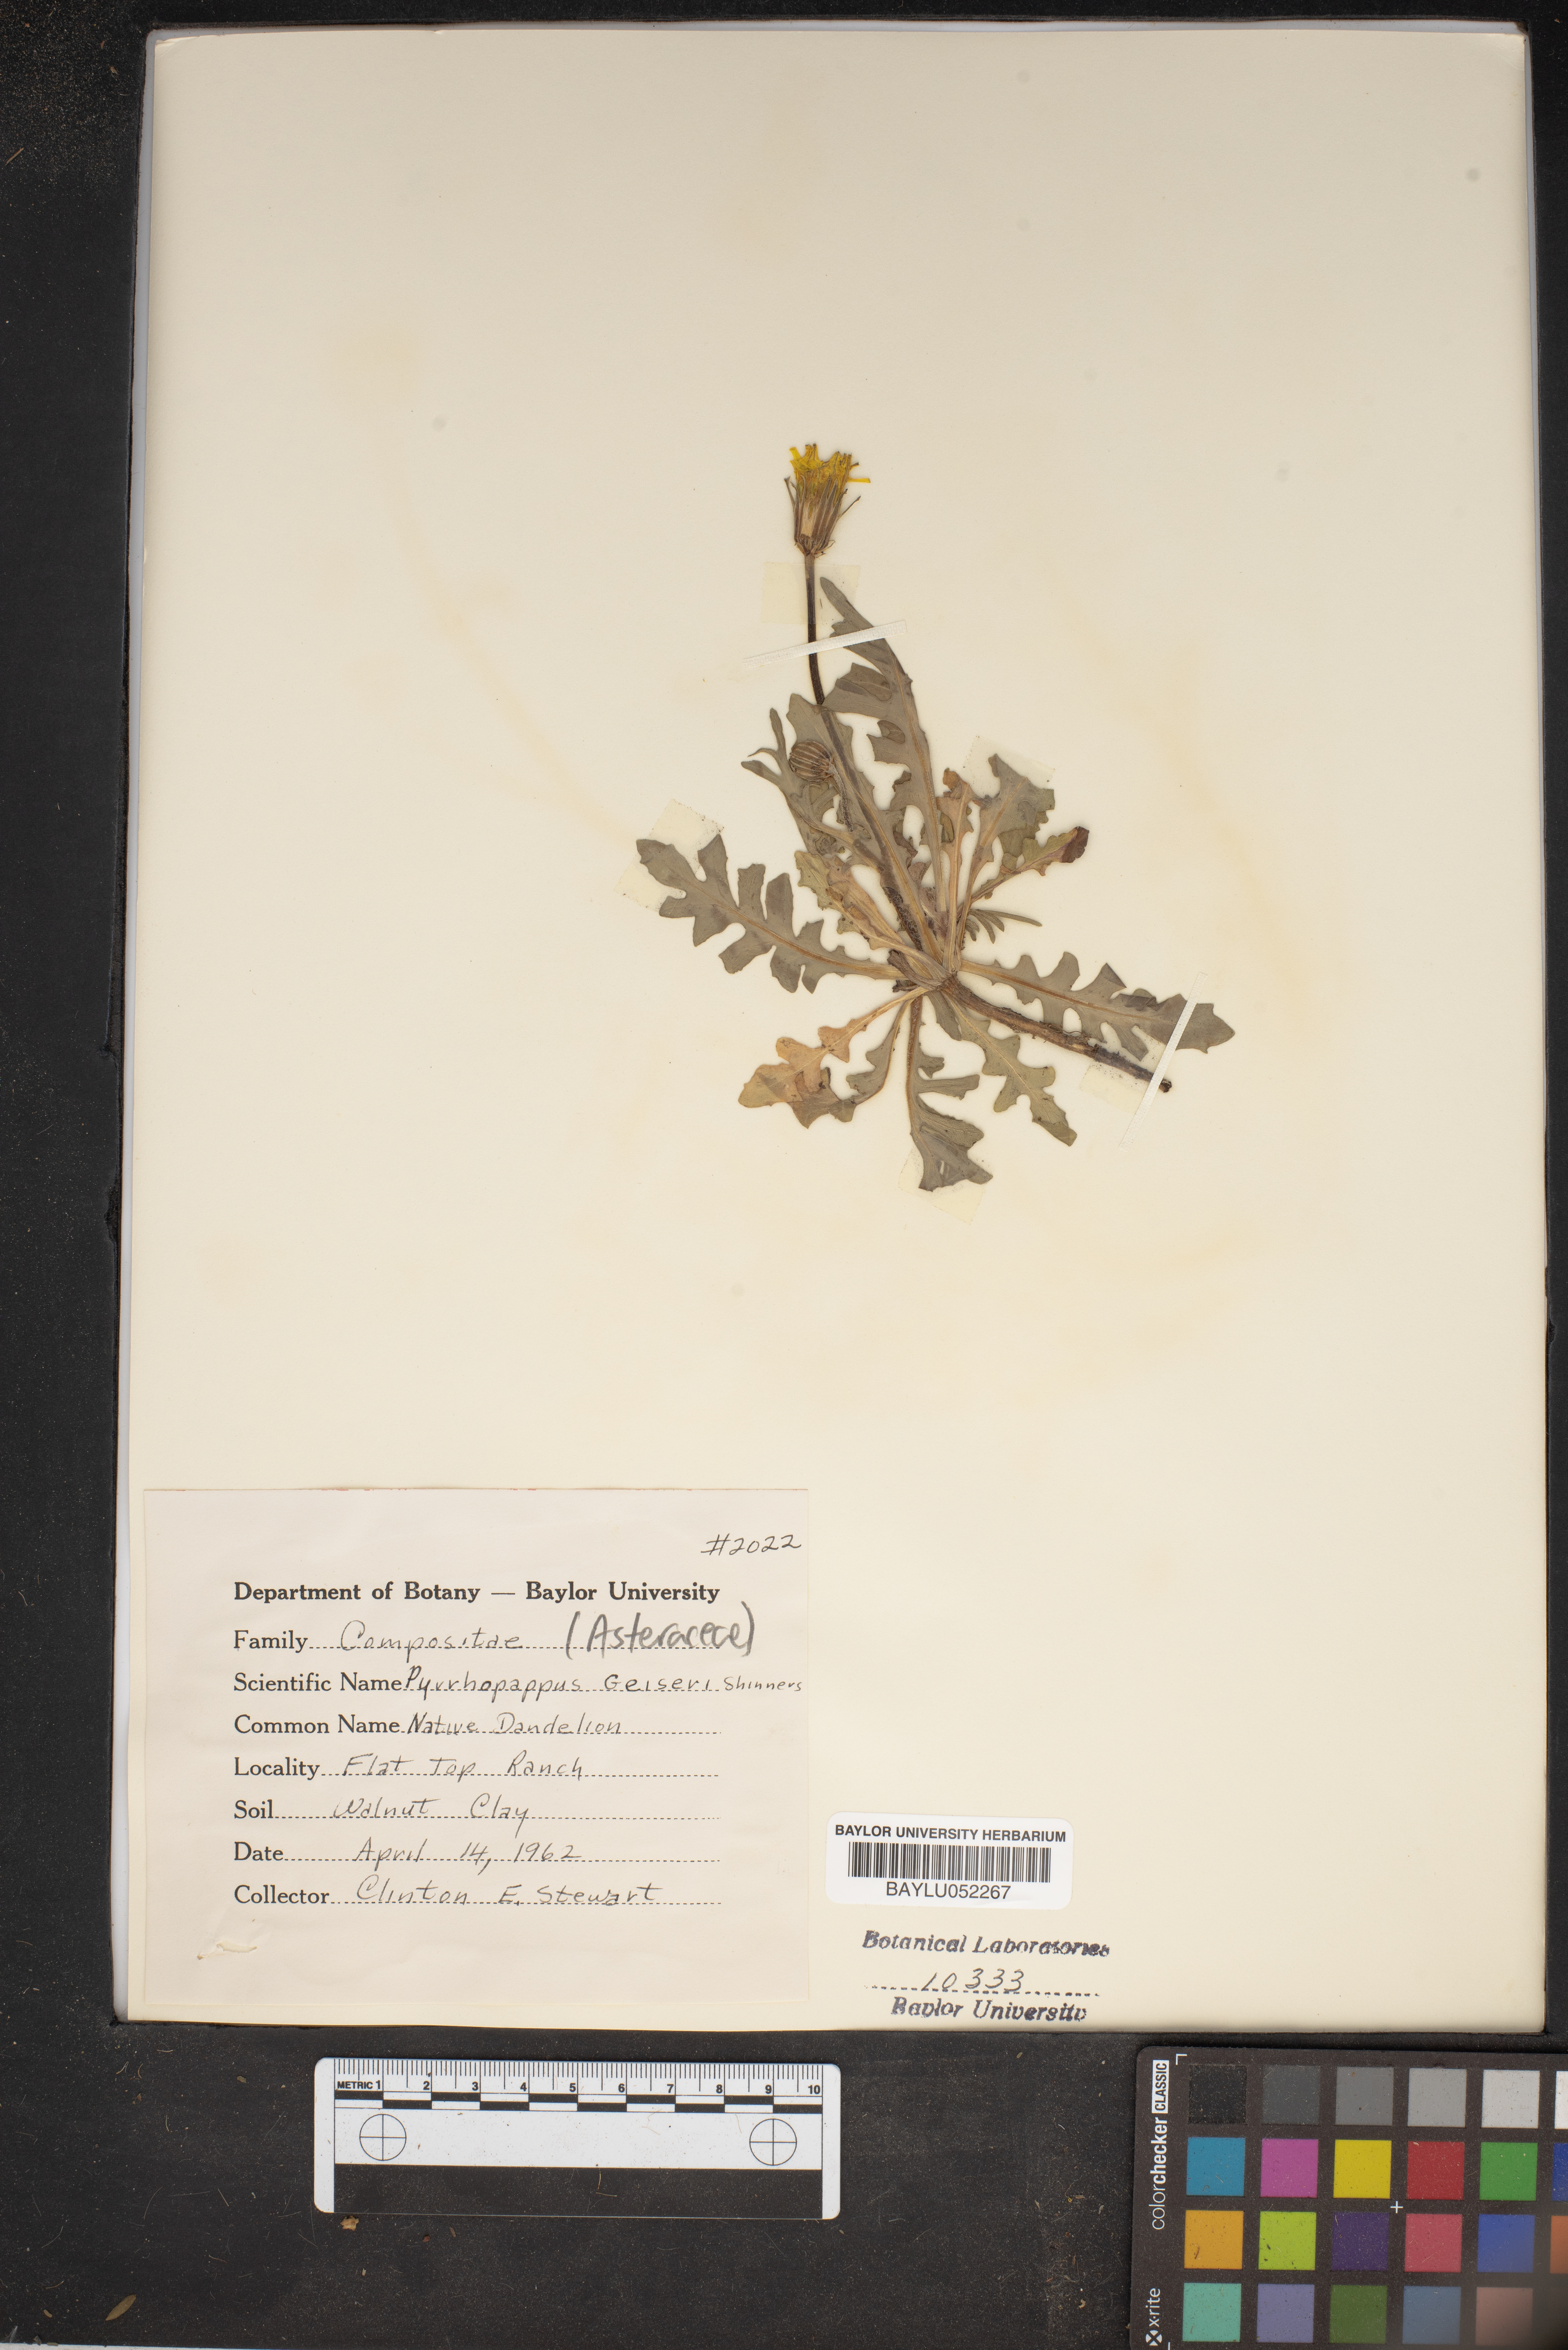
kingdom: Plantae
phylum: Tracheophyta
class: Magnoliopsida
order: Asterales
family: Asteraceae
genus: Pyrrhopappus
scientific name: Pyrrhopappus pauciflorus
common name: Texas false dandelion
